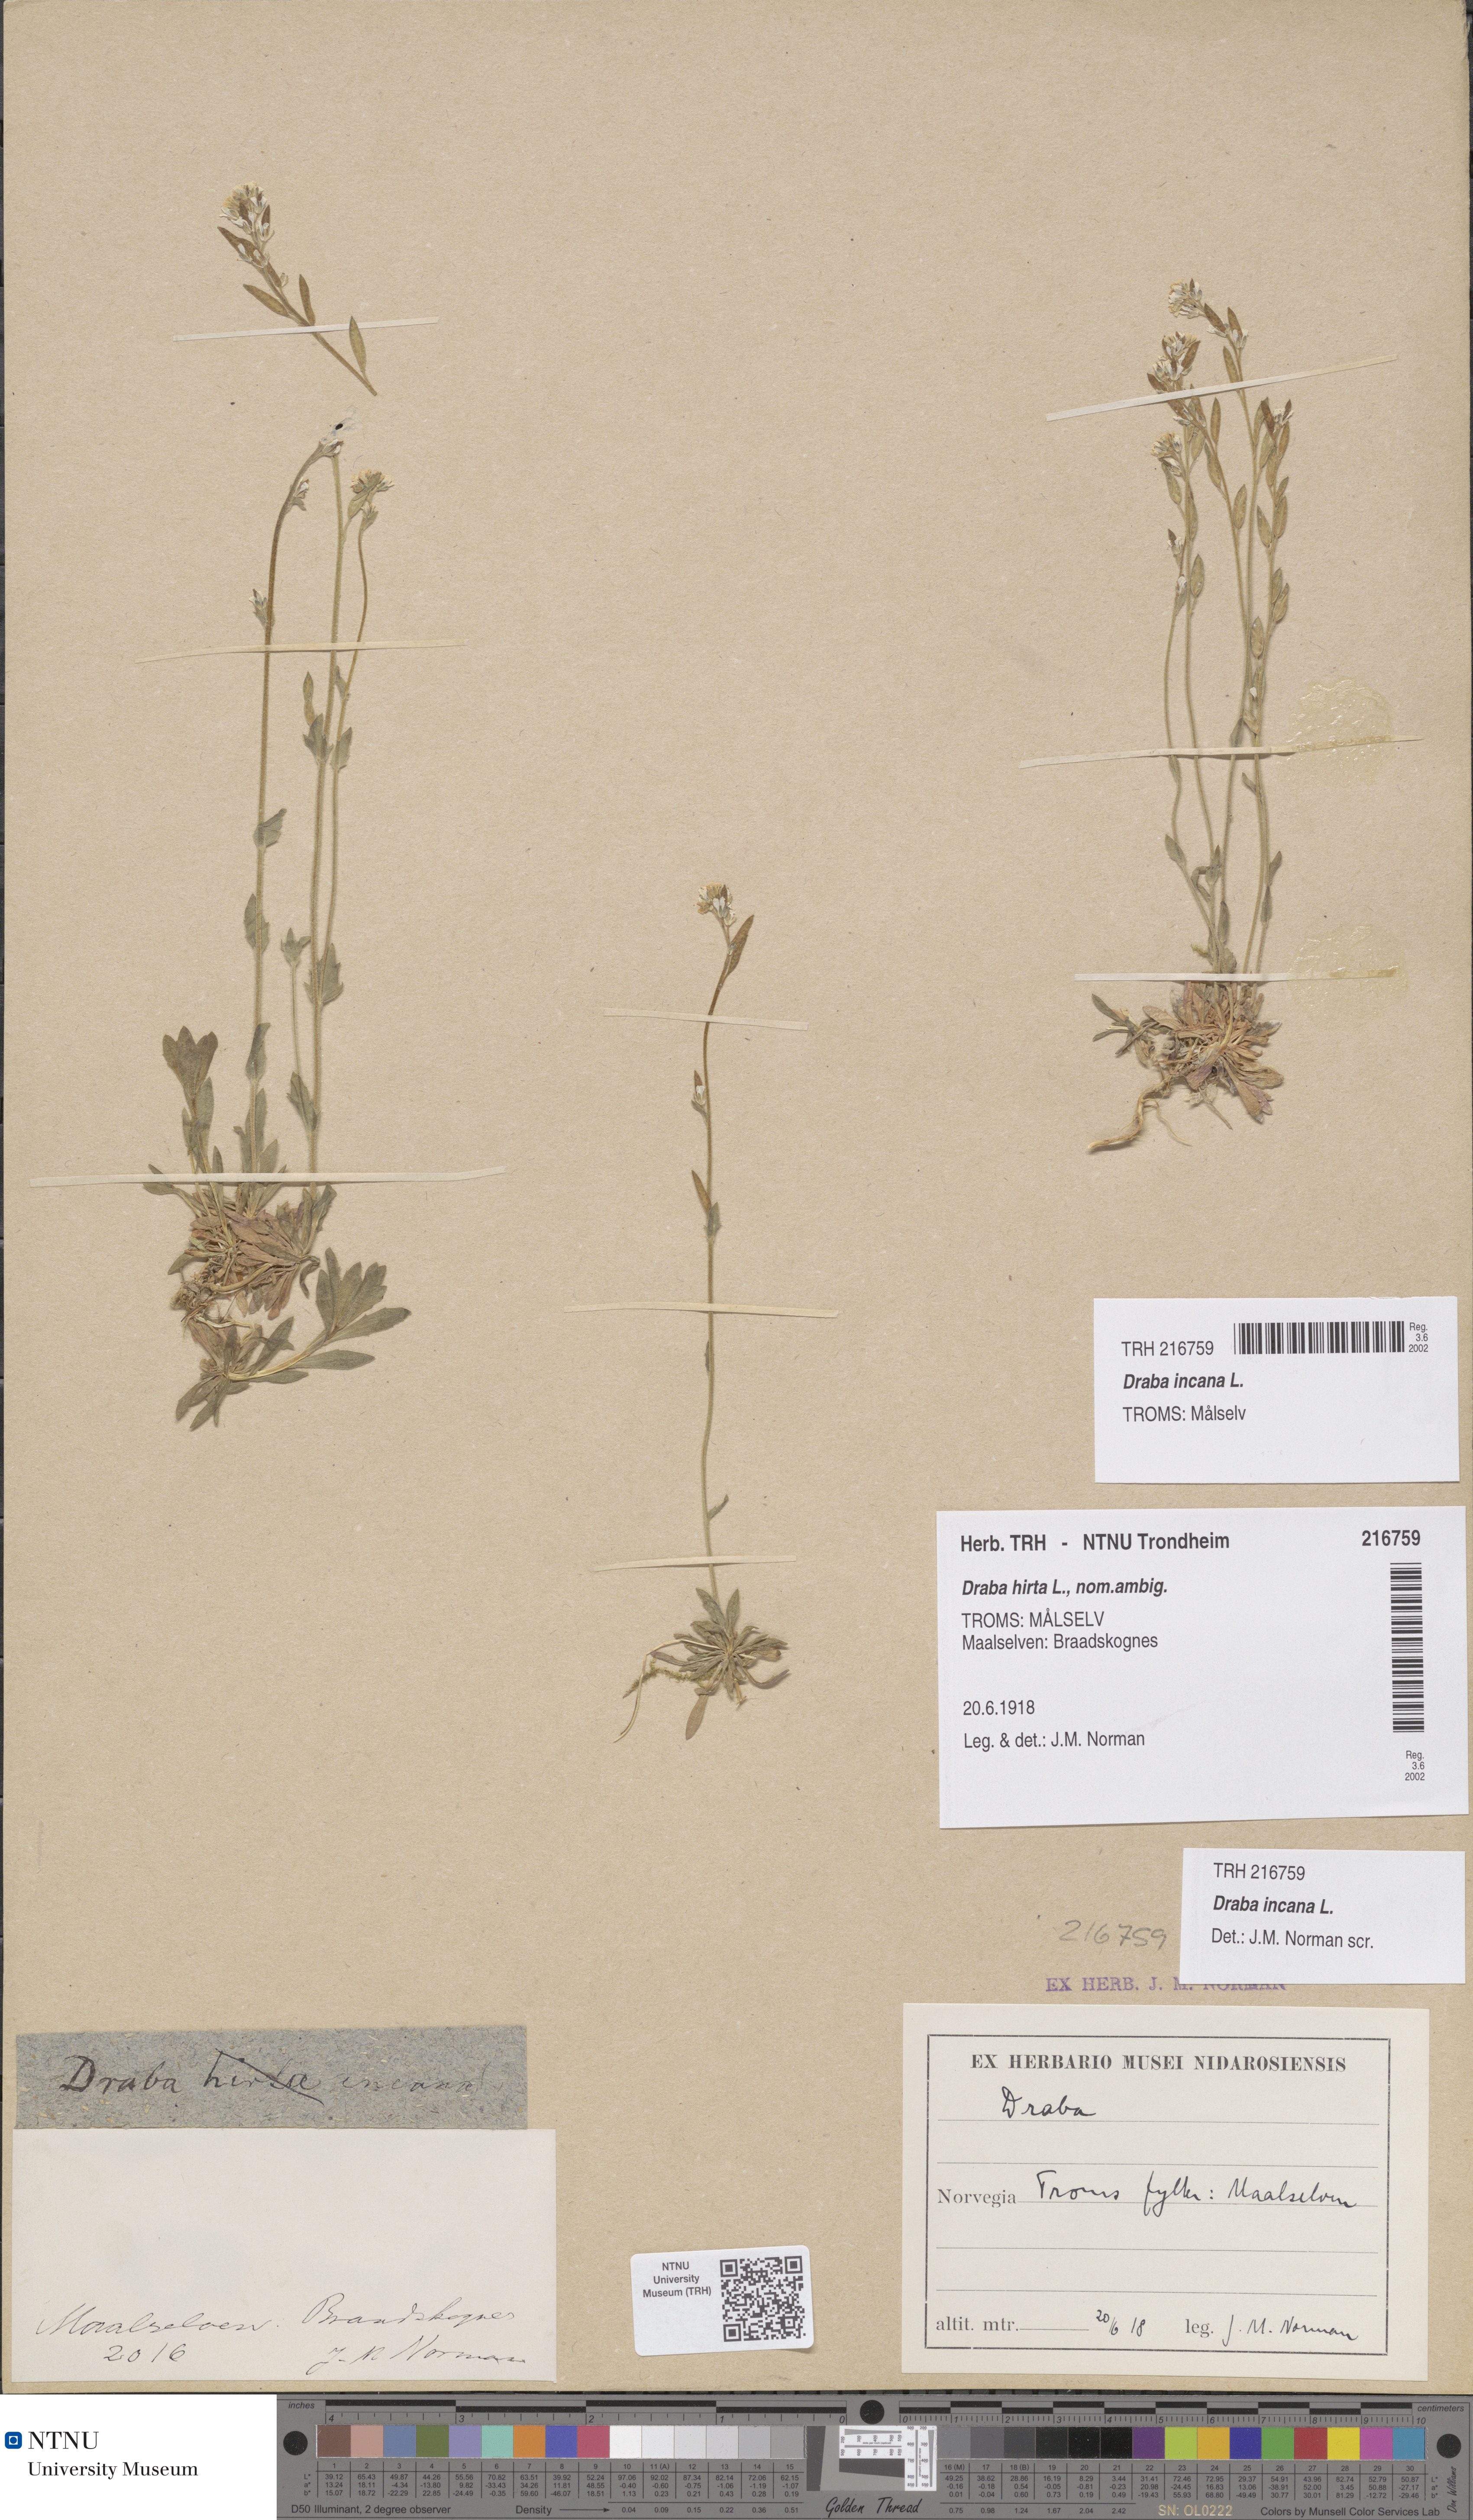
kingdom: Plantae
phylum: Tracheophyta
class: Magnoliopsida
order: Brassicales
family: Brassicaceae
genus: Draba
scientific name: Draba incana
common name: Hoary whitlow-grass
